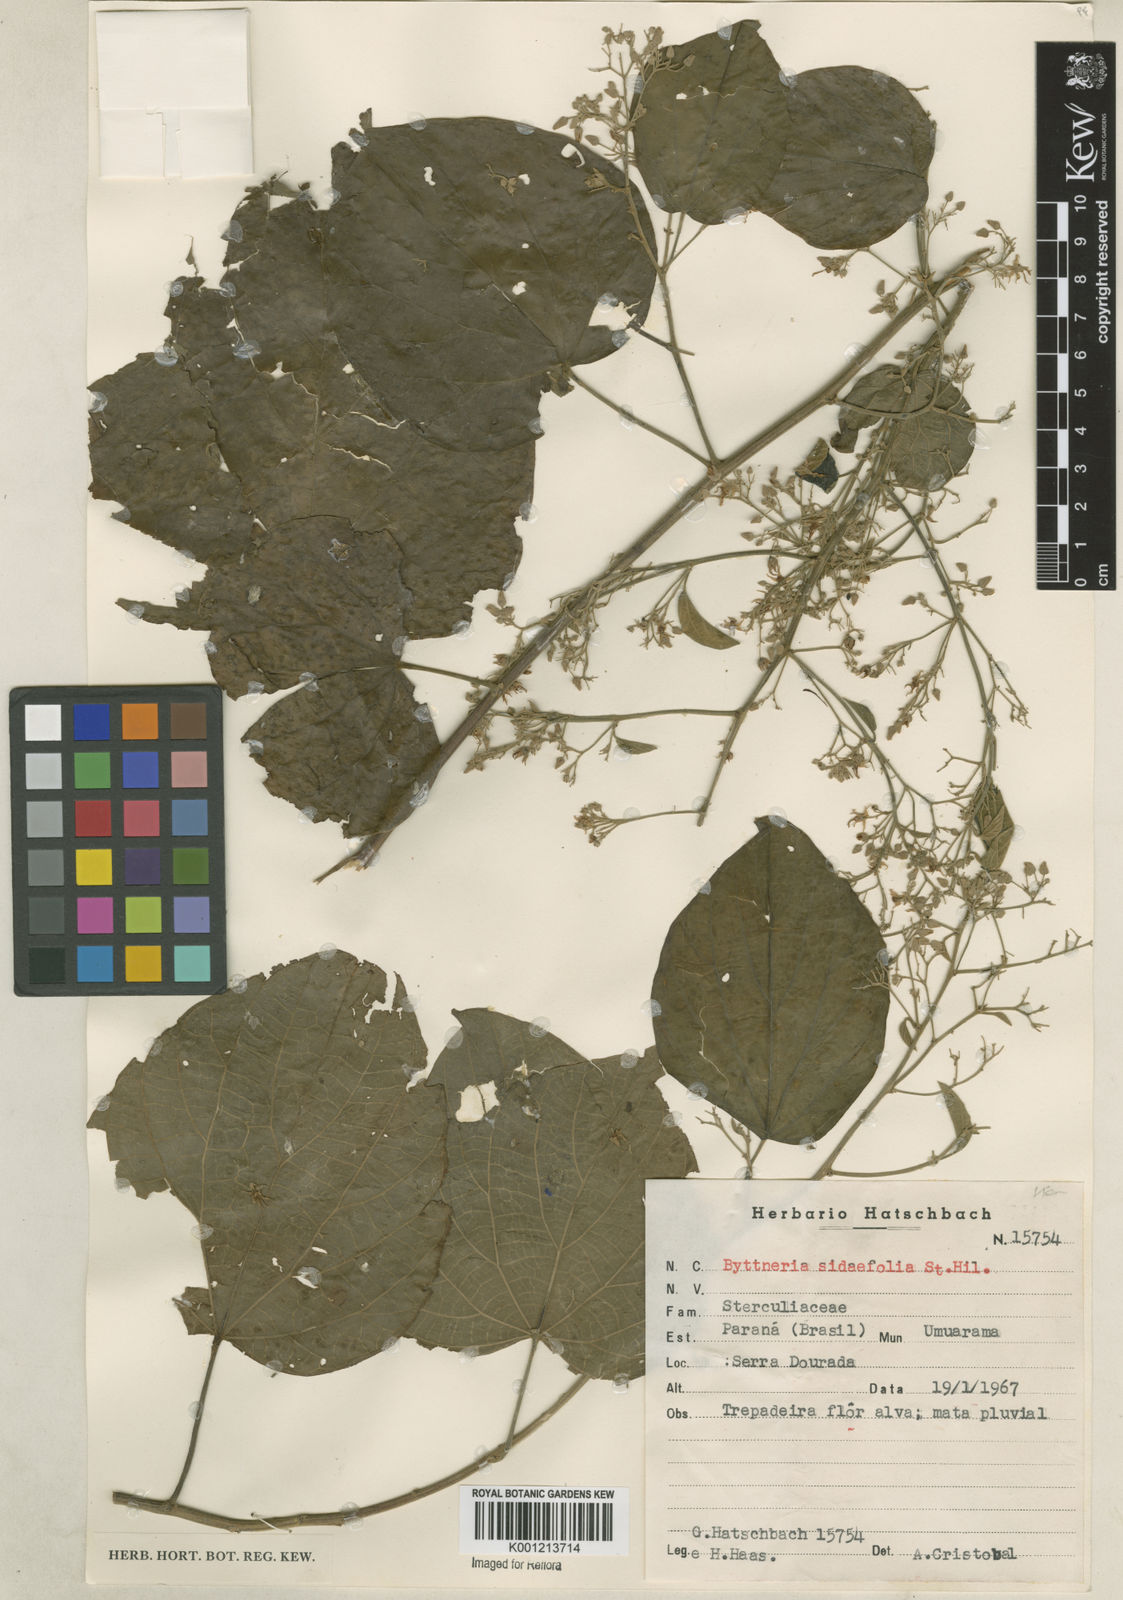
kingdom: Plantae
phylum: Tracheophyta
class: Magnoliopsida
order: Malvales
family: Malvaceae
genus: Byttneria
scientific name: Byttneria catalpifolia
